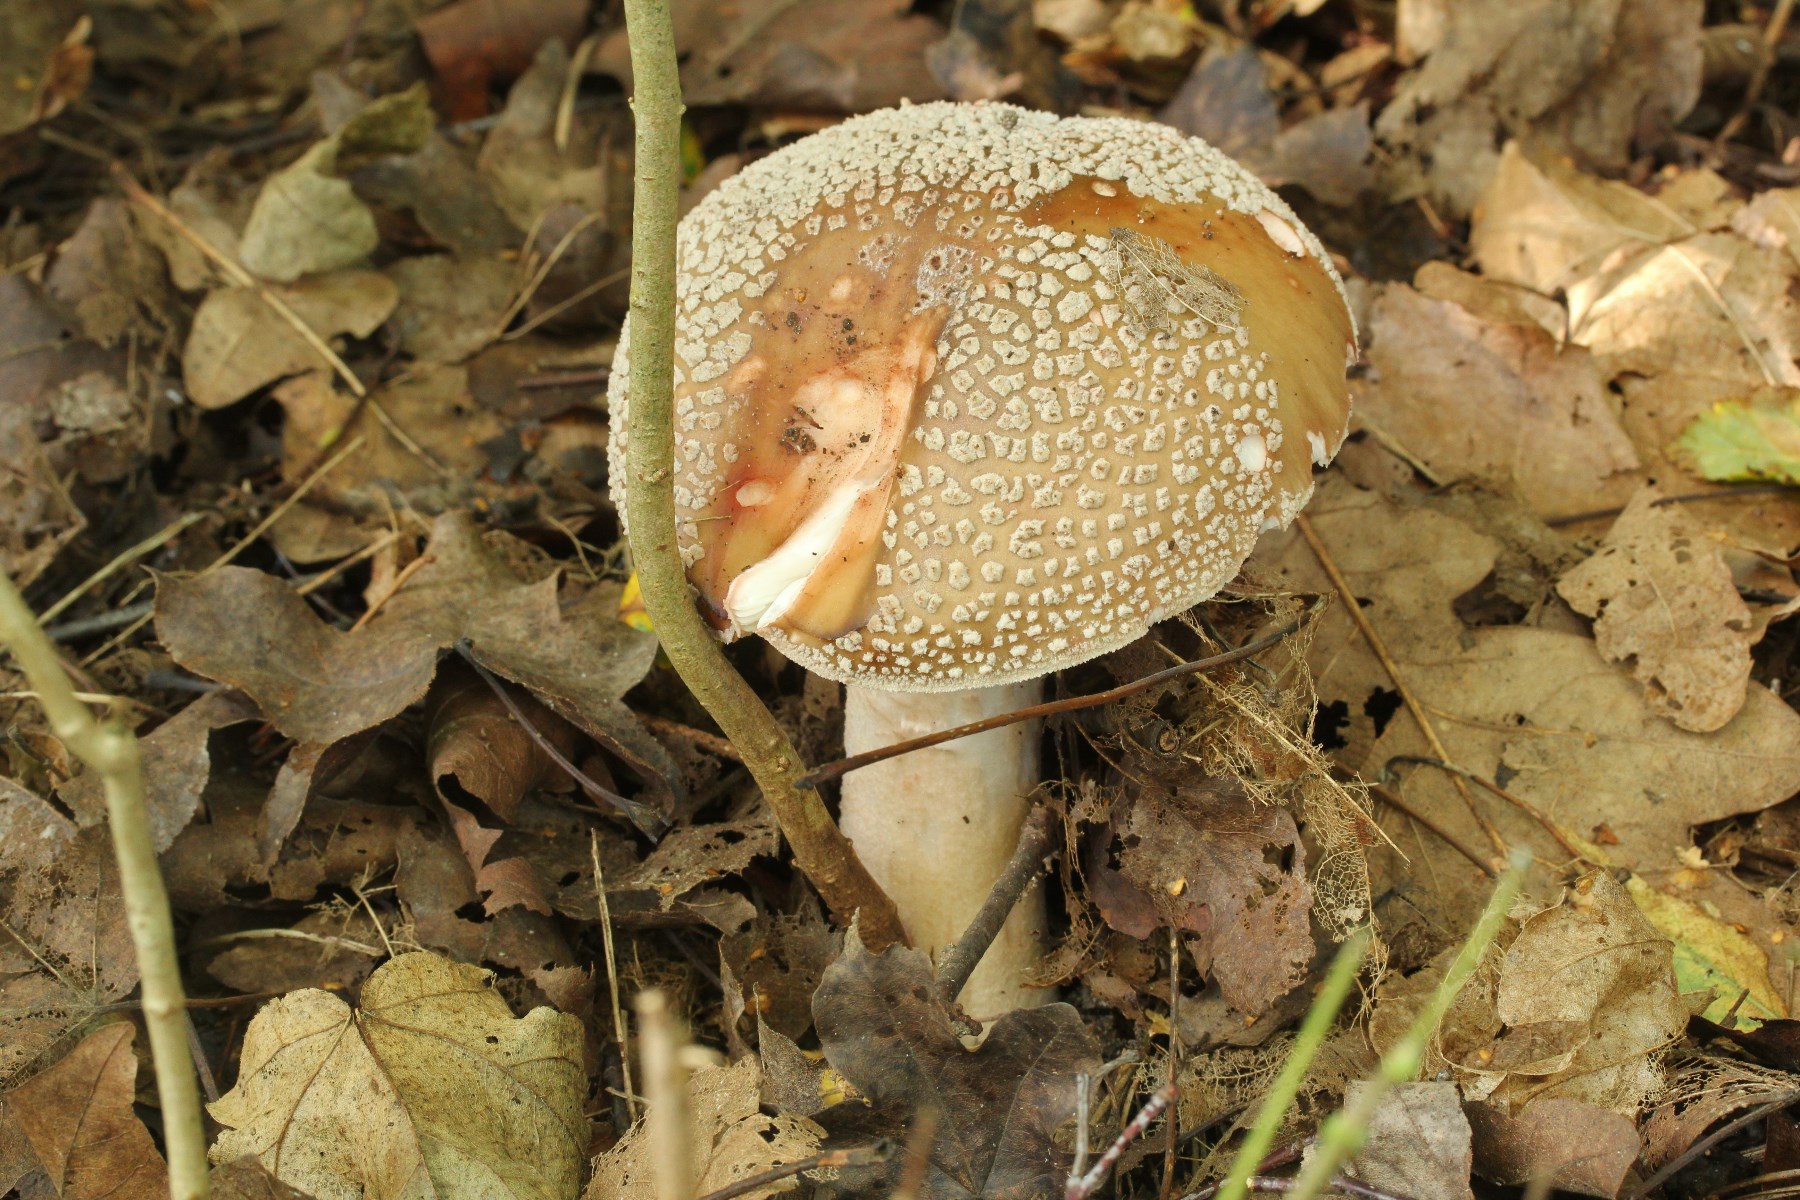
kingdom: Fungi
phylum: Basidiomycota
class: Agaricomycetes
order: Agaricales
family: Amanitaceae
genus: Amanita
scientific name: Amanita rubescens
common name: rødmende fluesvamp
